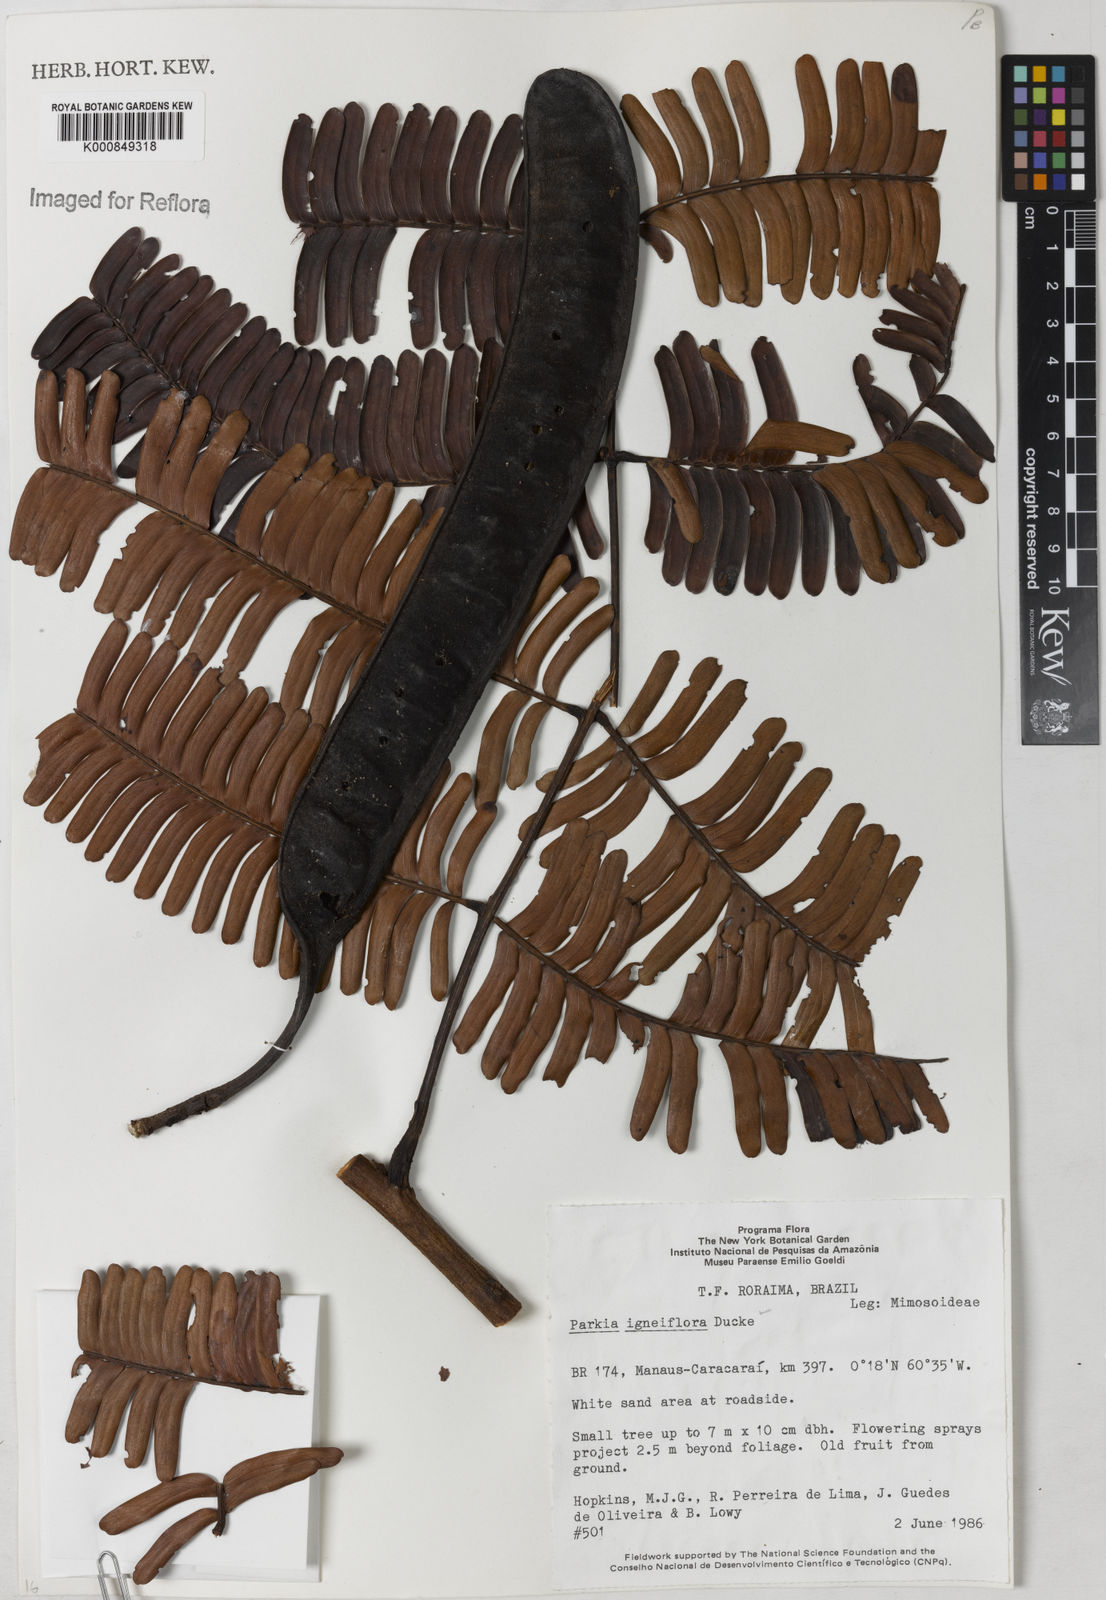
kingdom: Plantae
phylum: Tracheophyta
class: Magnoliopsida
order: Fabales
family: Fabaceae
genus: Parkia
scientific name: Parkia igneiflora
